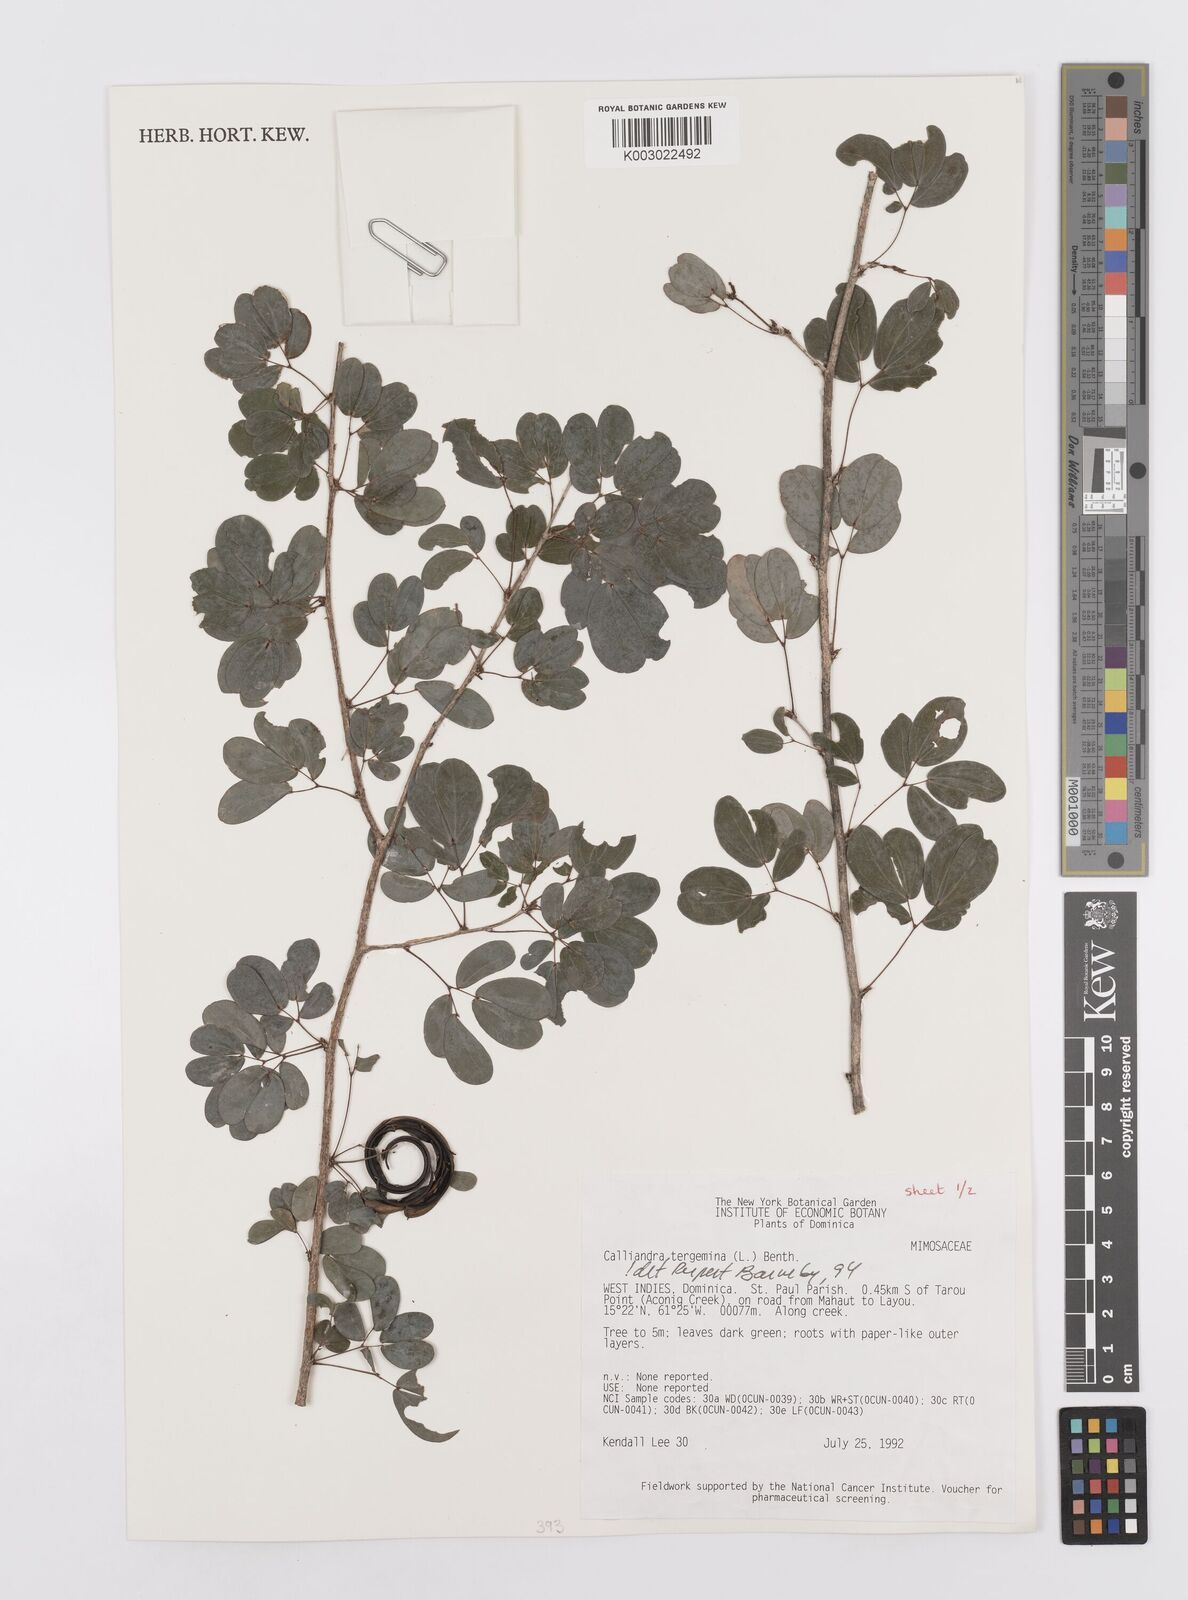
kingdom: Plantae
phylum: Tracheophyta
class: Magnoliopsida
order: Fabales
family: Fabaceae
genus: Calliandra
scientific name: Calliandra tergemina
